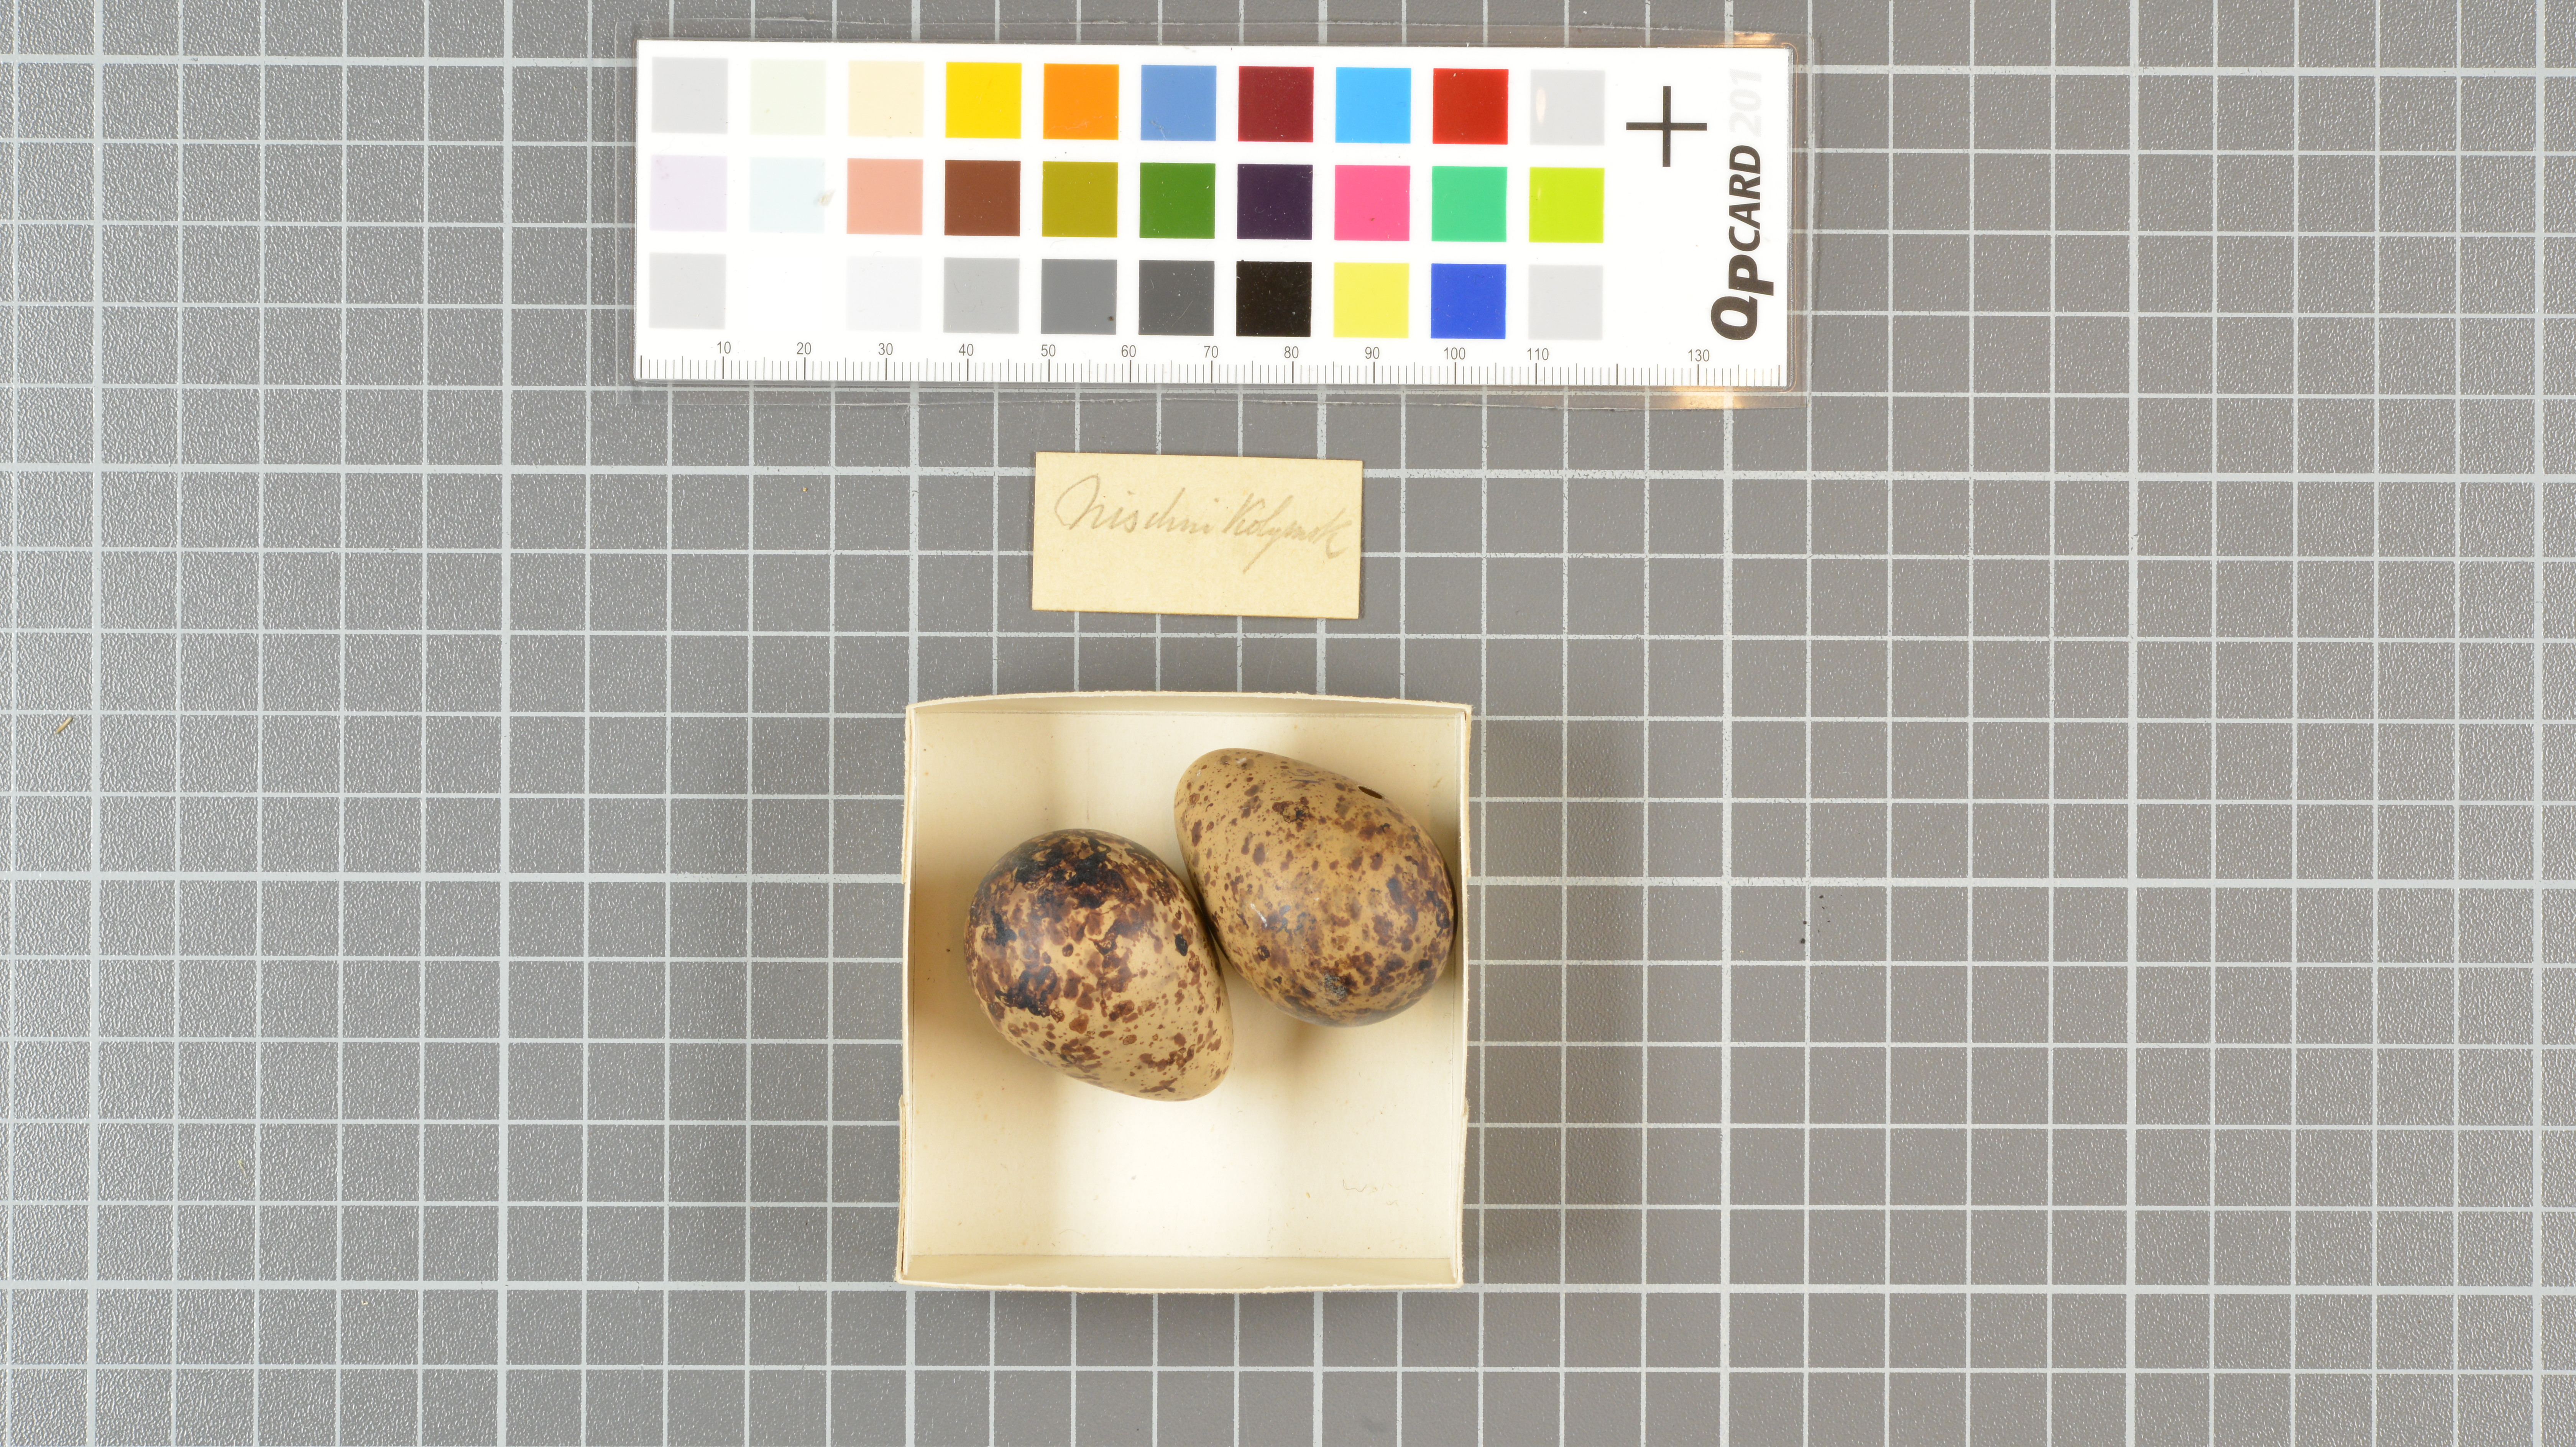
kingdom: Animalia
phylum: Chordata
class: Aves
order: Charadriiformes
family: Scolopacidae
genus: Gallinago
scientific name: Gallinago gallinago
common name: Common snipe
